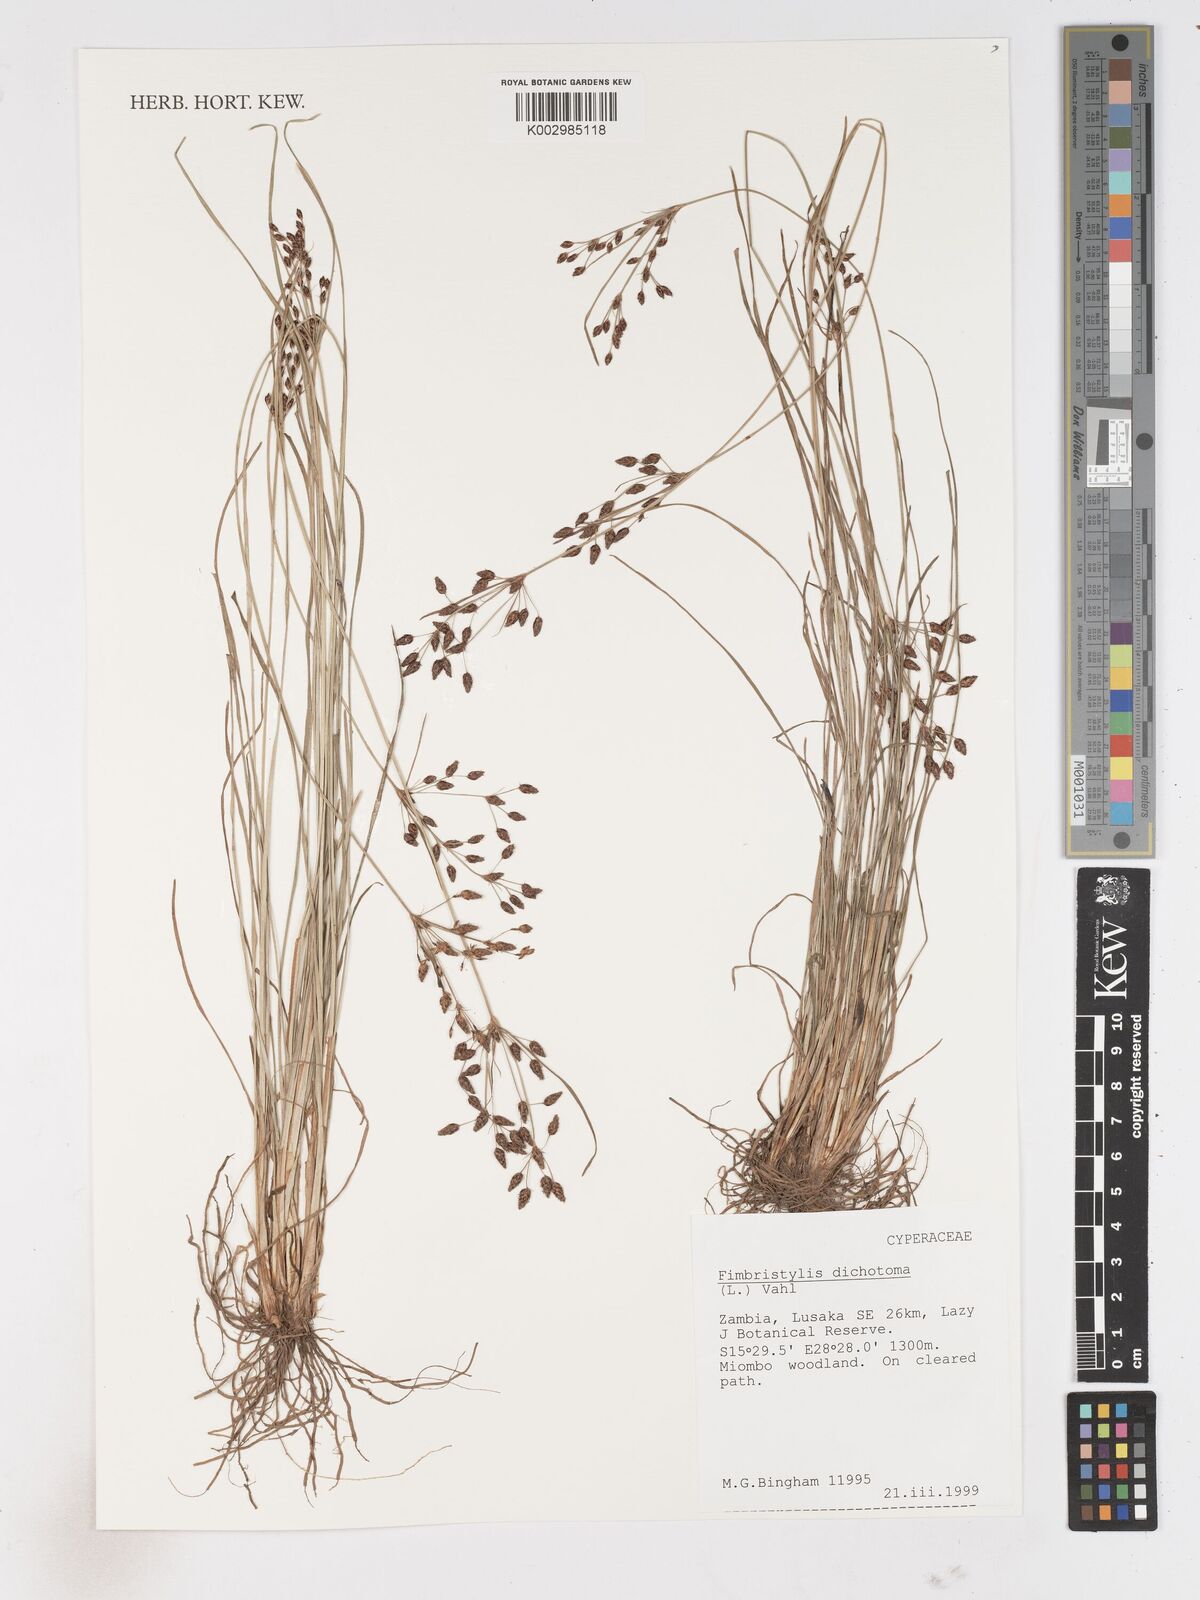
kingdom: Plantae
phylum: Tracheophyta
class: Liliopsida
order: Poales
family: Cyperaceae
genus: Fimbristylis
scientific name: Fimbristylis dichotoma
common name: Forked fimbry
